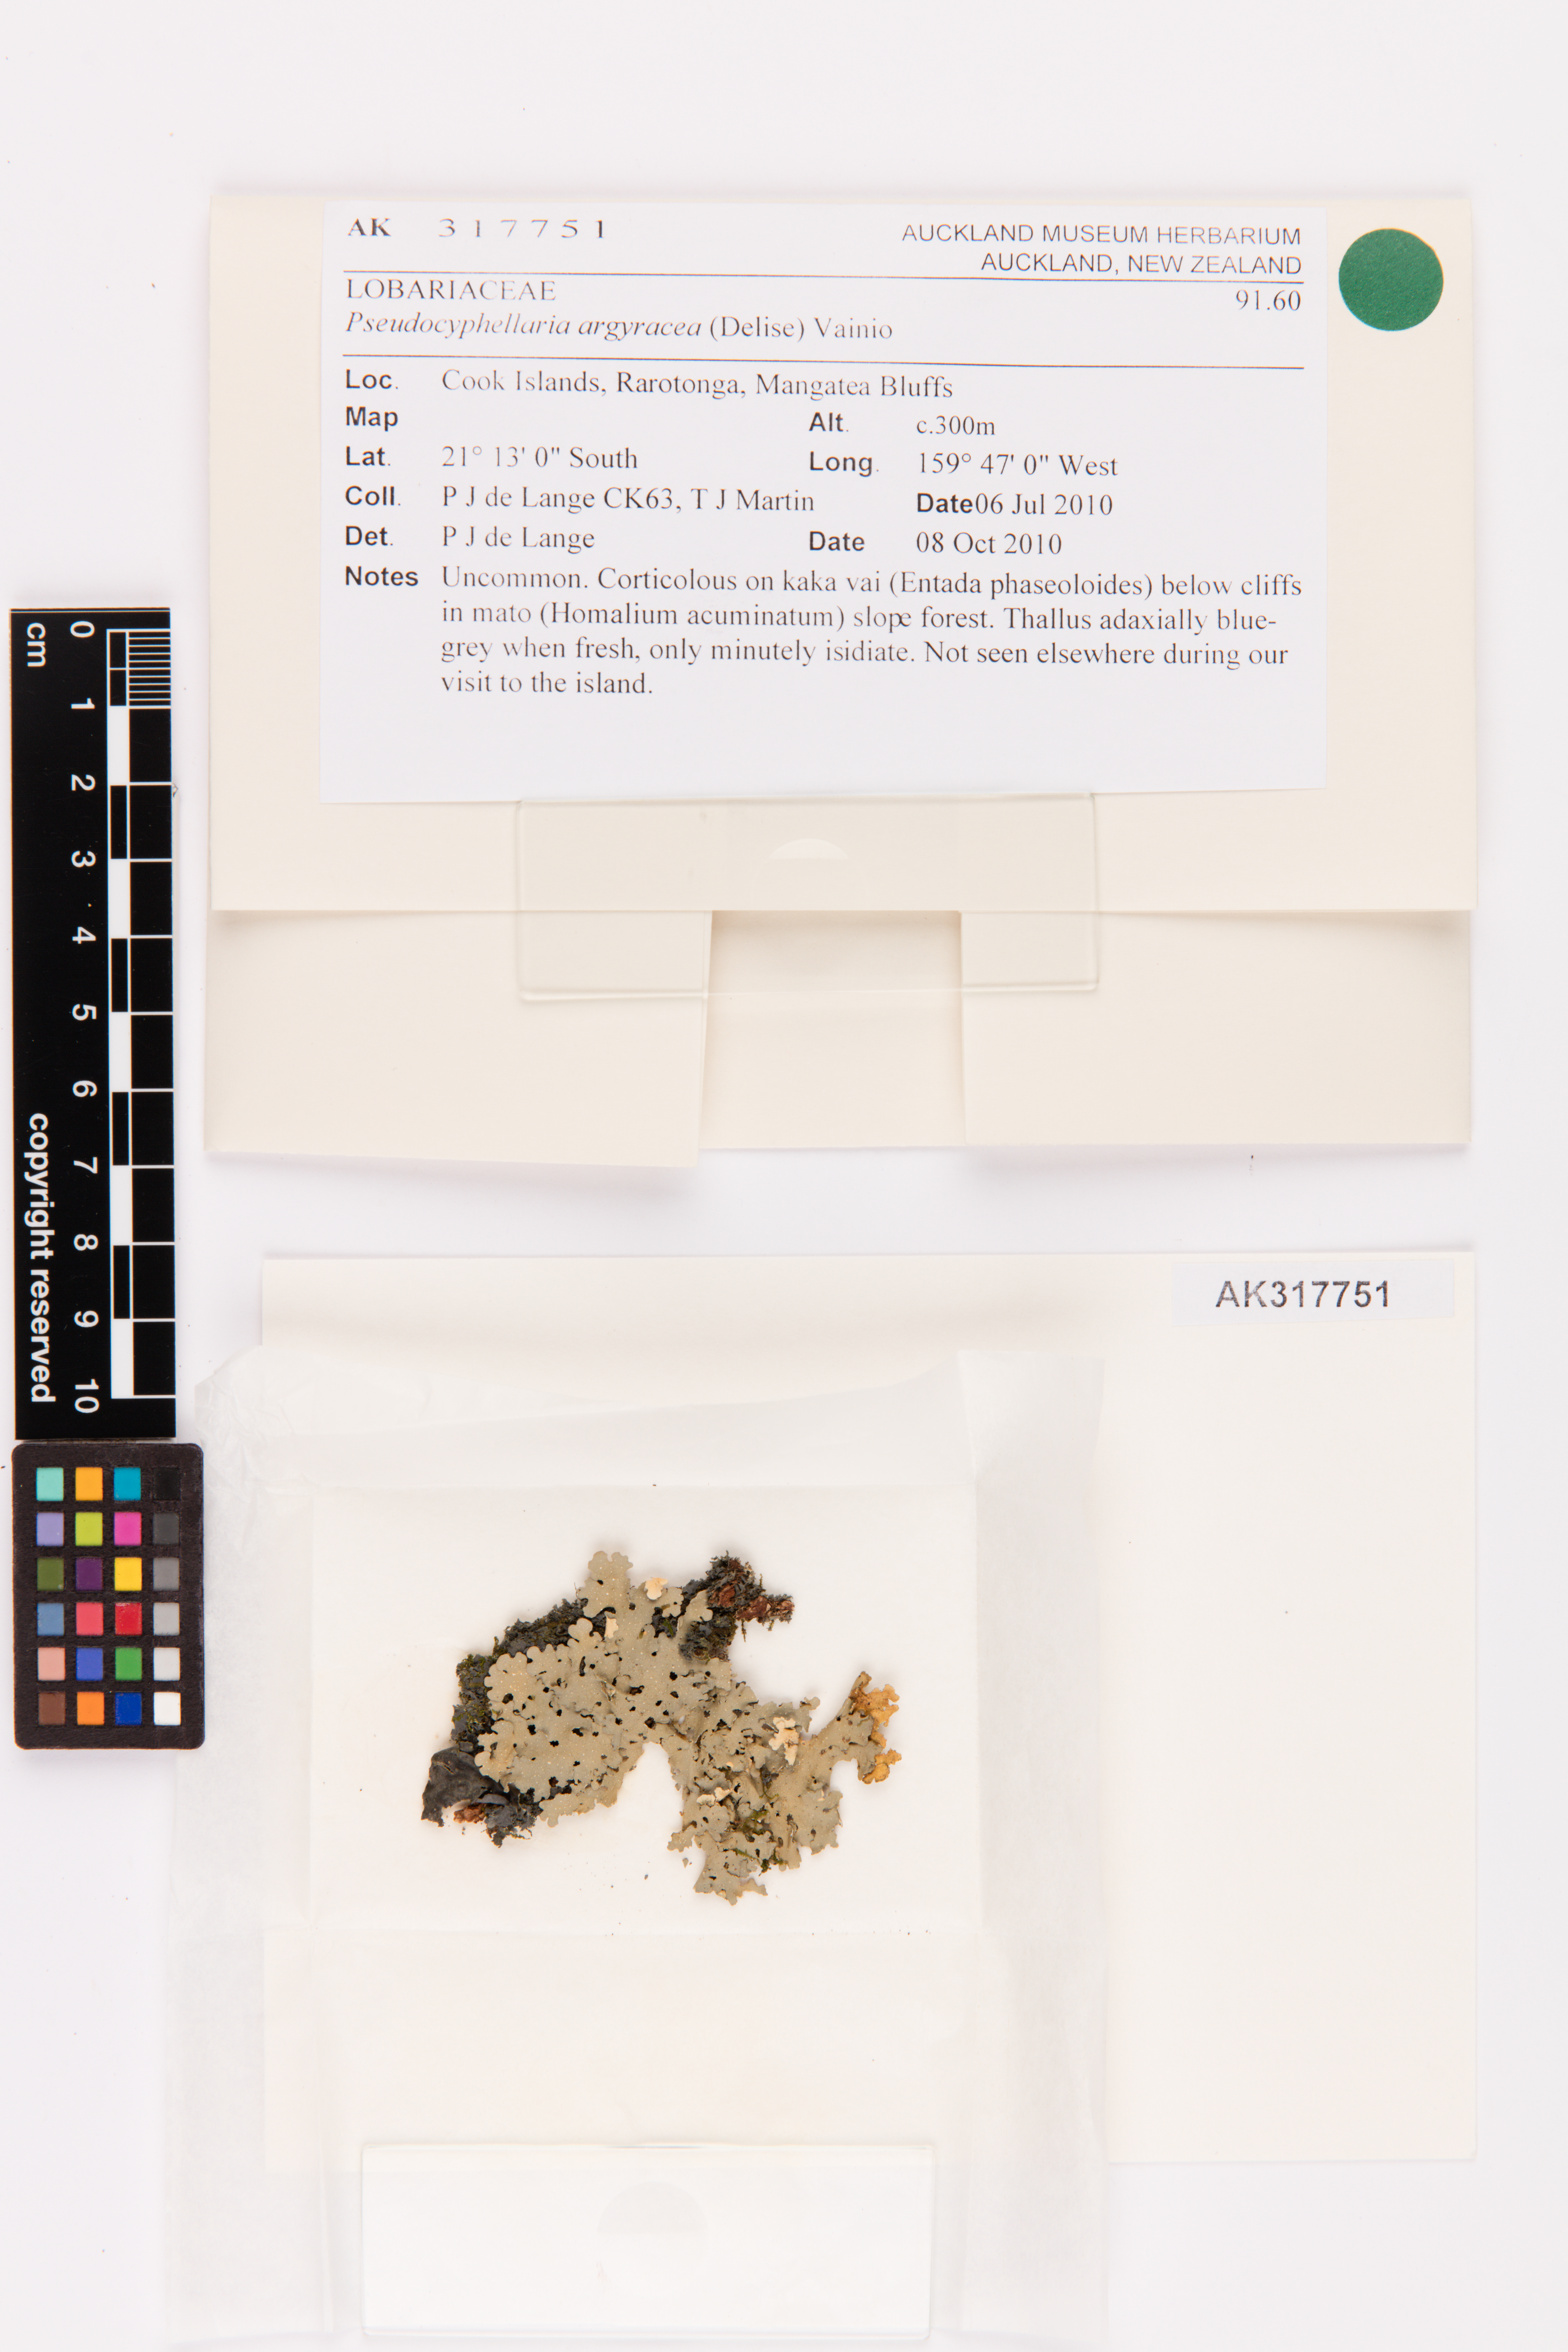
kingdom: Fungi
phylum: Ascomycota
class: Lecanoromycetes
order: Peltigerales
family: Lobariaceae
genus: Pseudocyphellaria
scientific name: Pseudocyphellaria argyracea
